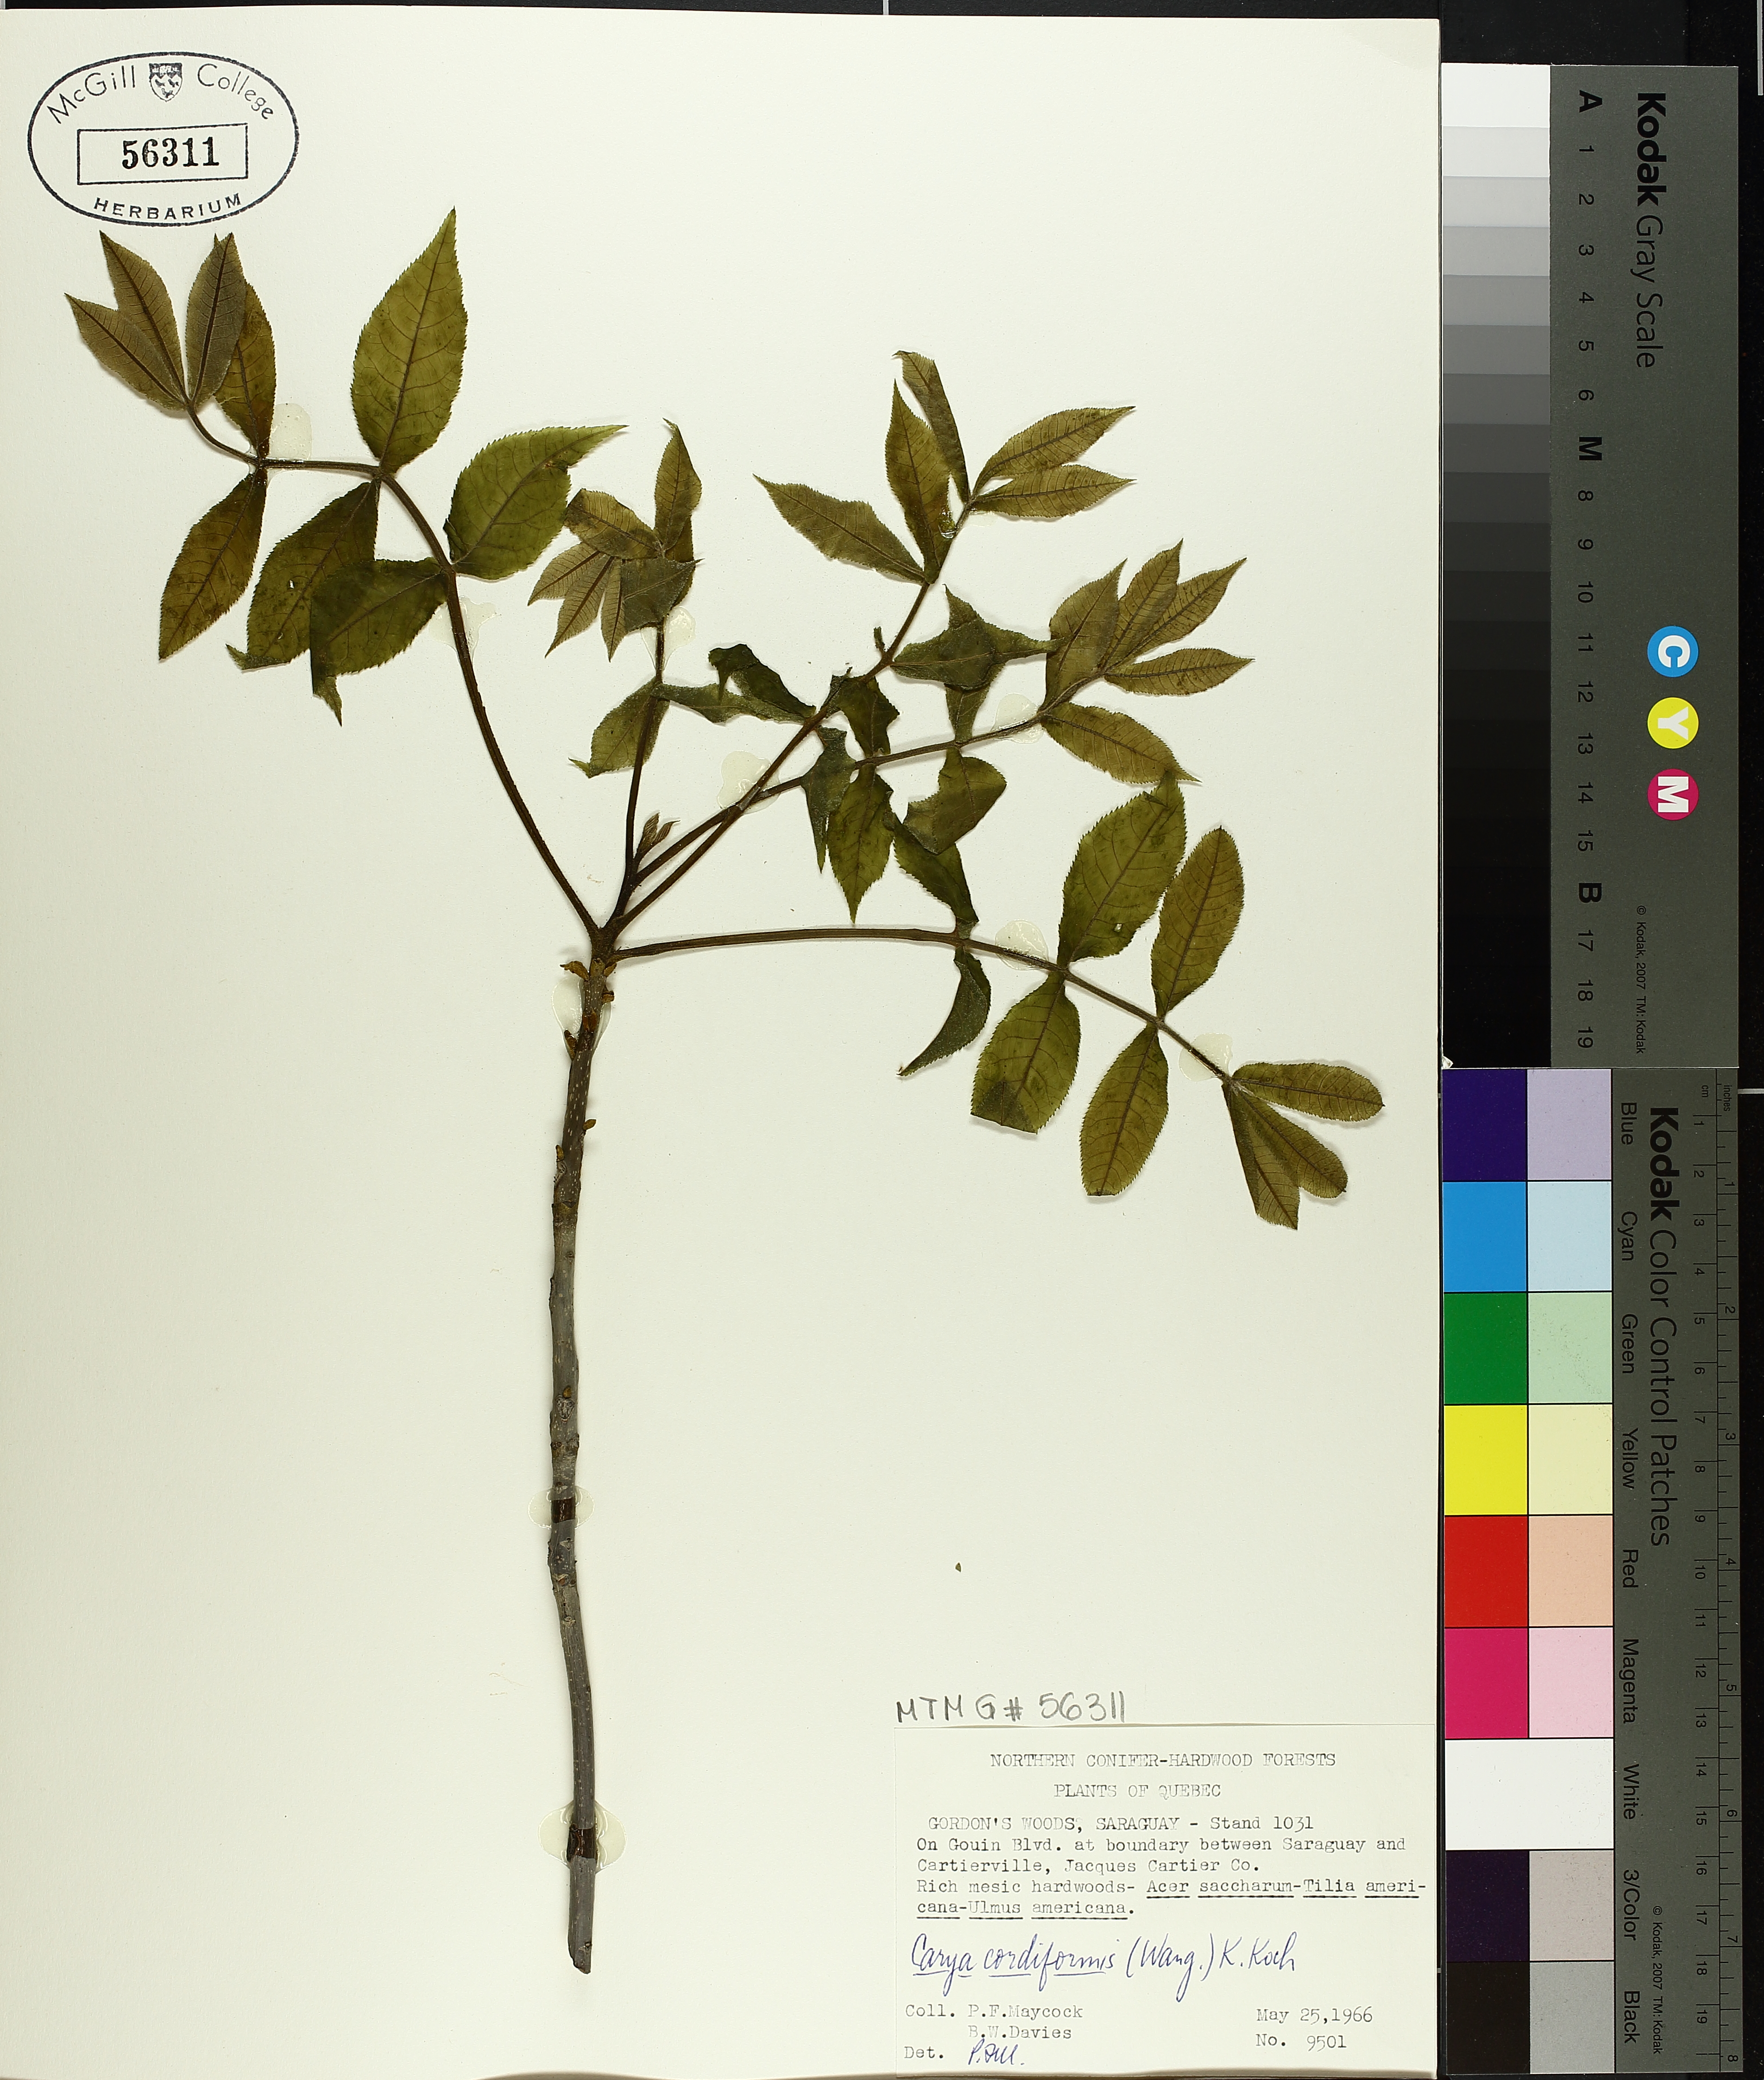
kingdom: Plantae
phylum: Tracheophyta
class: Magnoliopsida
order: Fagales
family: Juglandaceae
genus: Carya
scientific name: Carya cordiformis
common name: Bitternut hickory
